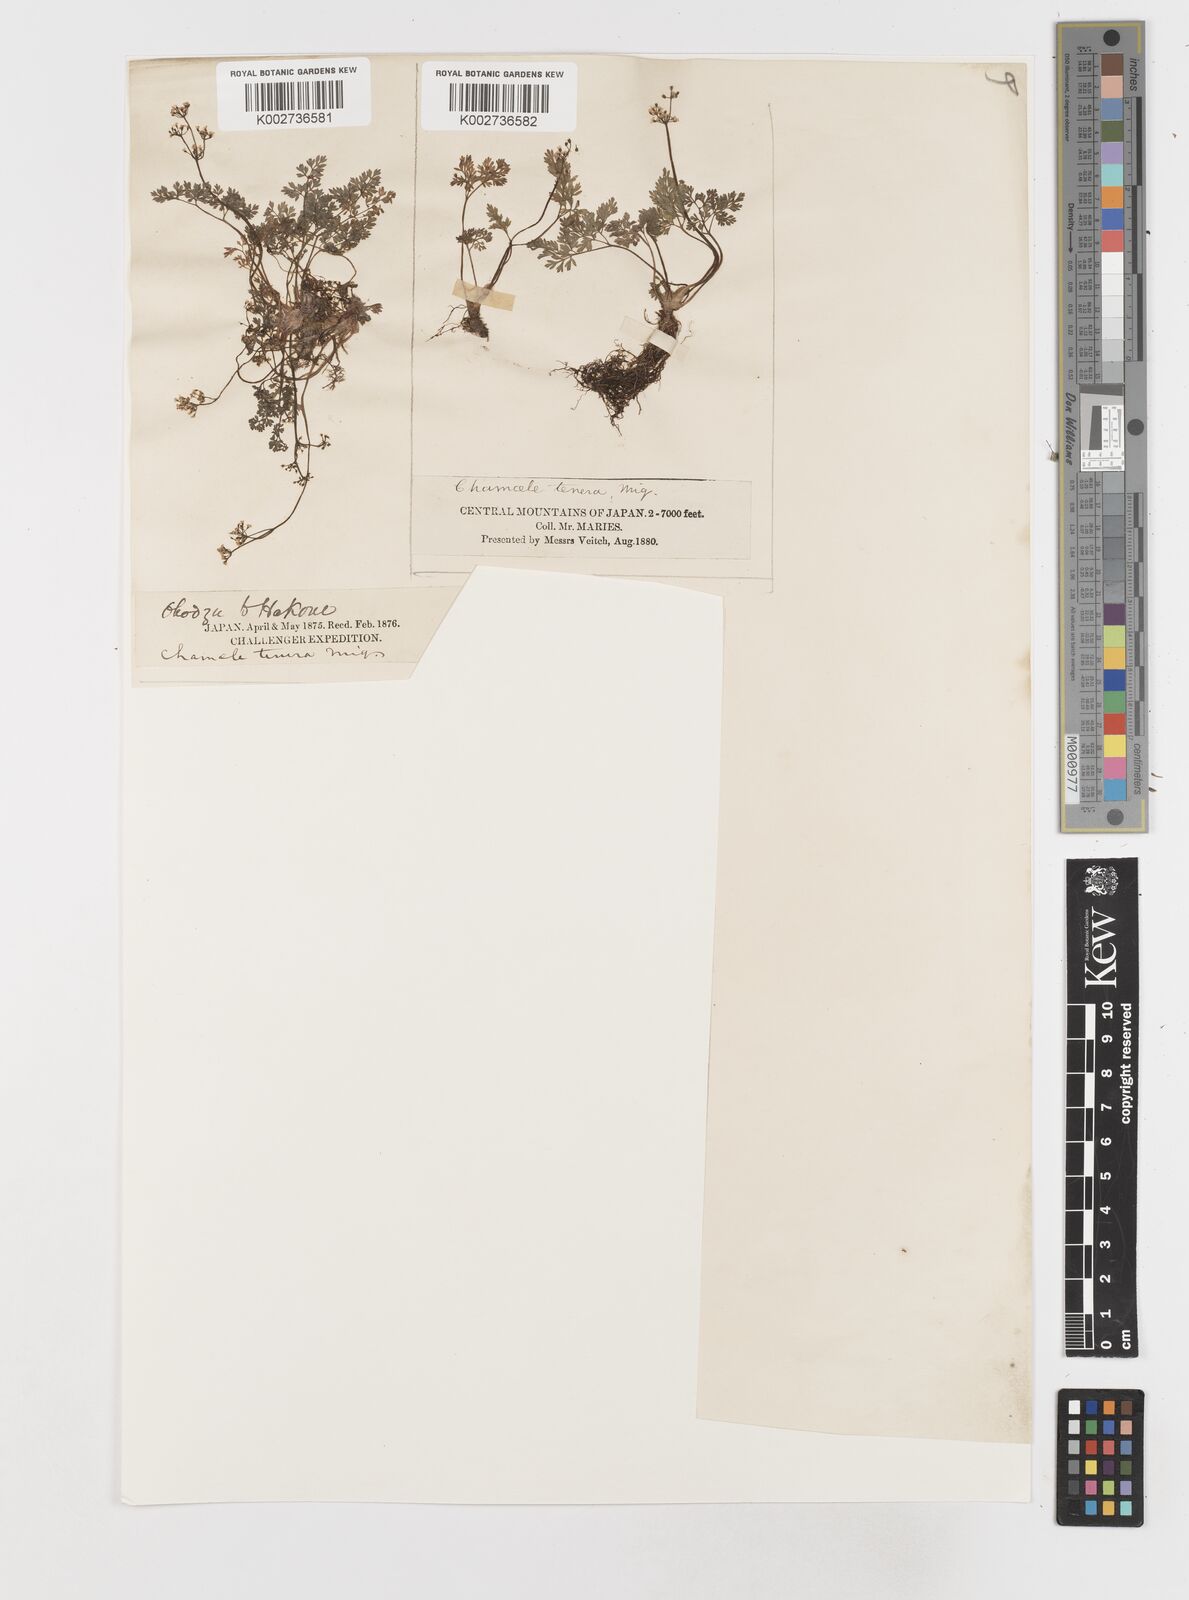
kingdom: Plantae
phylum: Tracheophyta
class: Magnoliopsida
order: Apiales
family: Apiaceae
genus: Aegopodium
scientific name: Aegopodium decumbens
